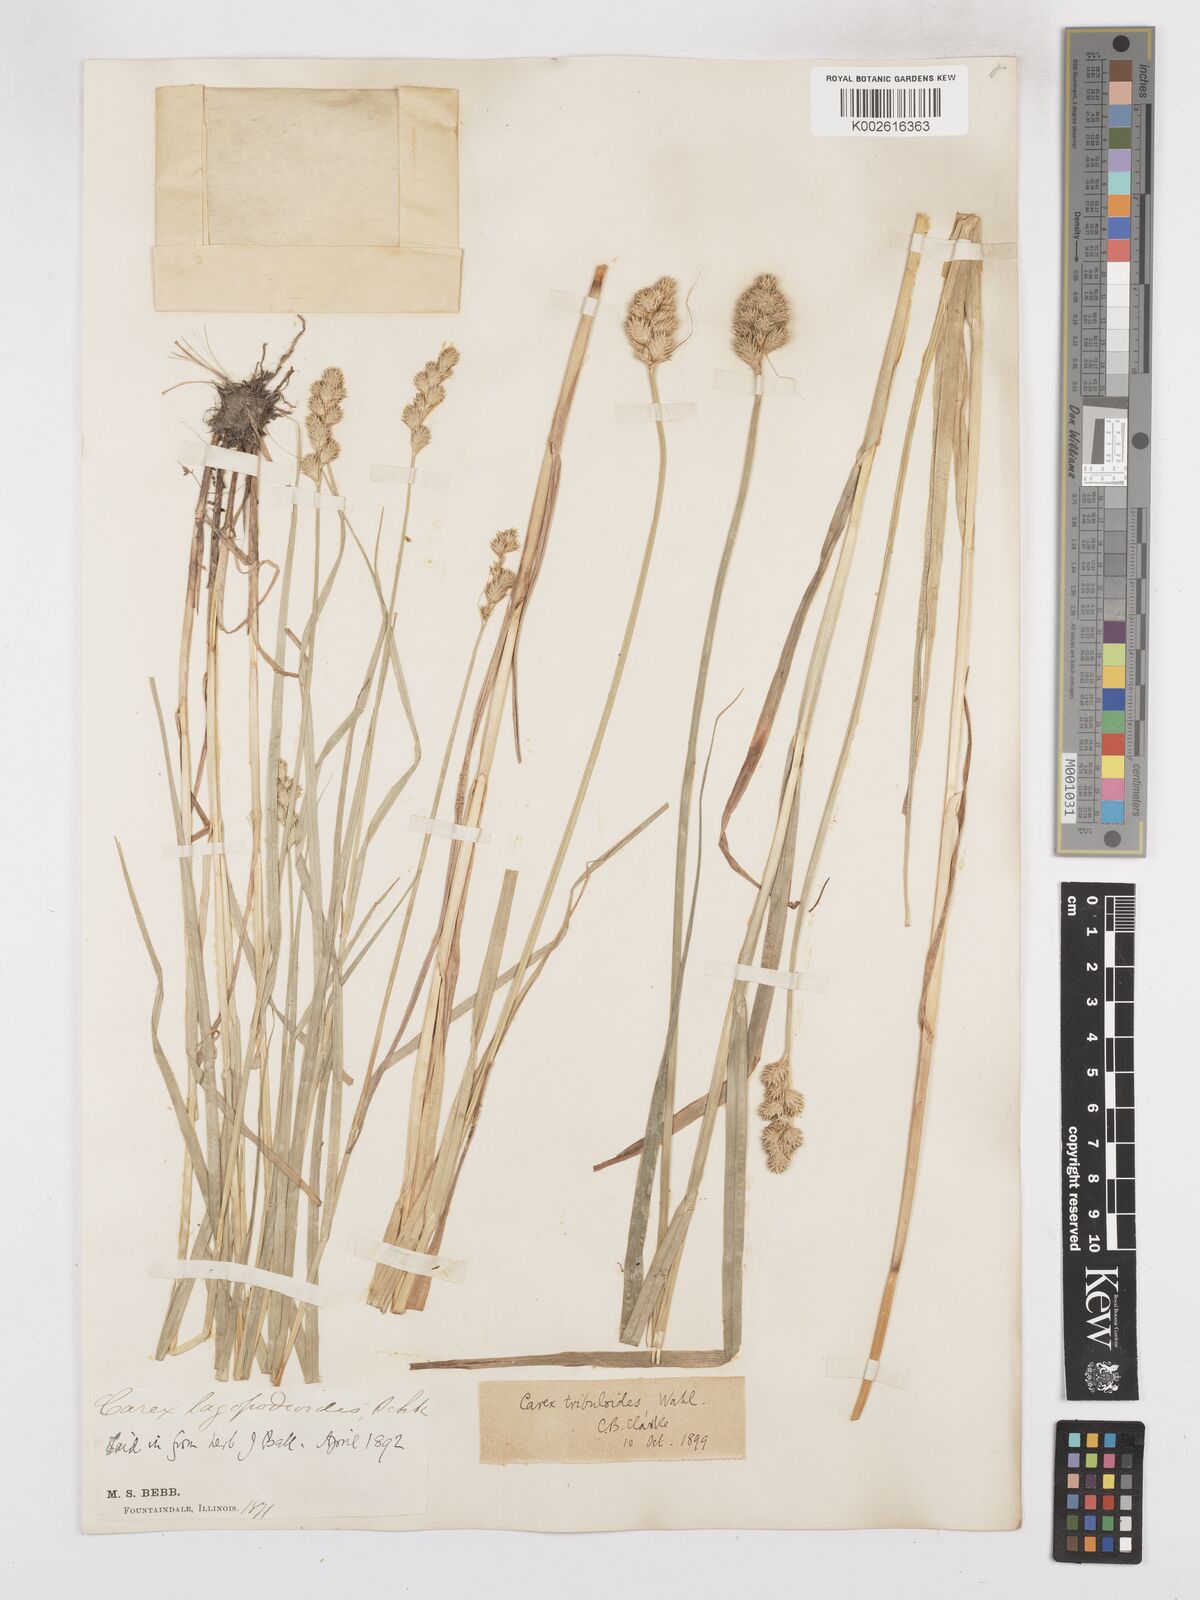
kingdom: Plantae
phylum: Tracheophyta
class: Liliopsida
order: Poales
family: Cyperaceae
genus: Carex
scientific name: Carex tribuloides
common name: Blunt broom sedge
